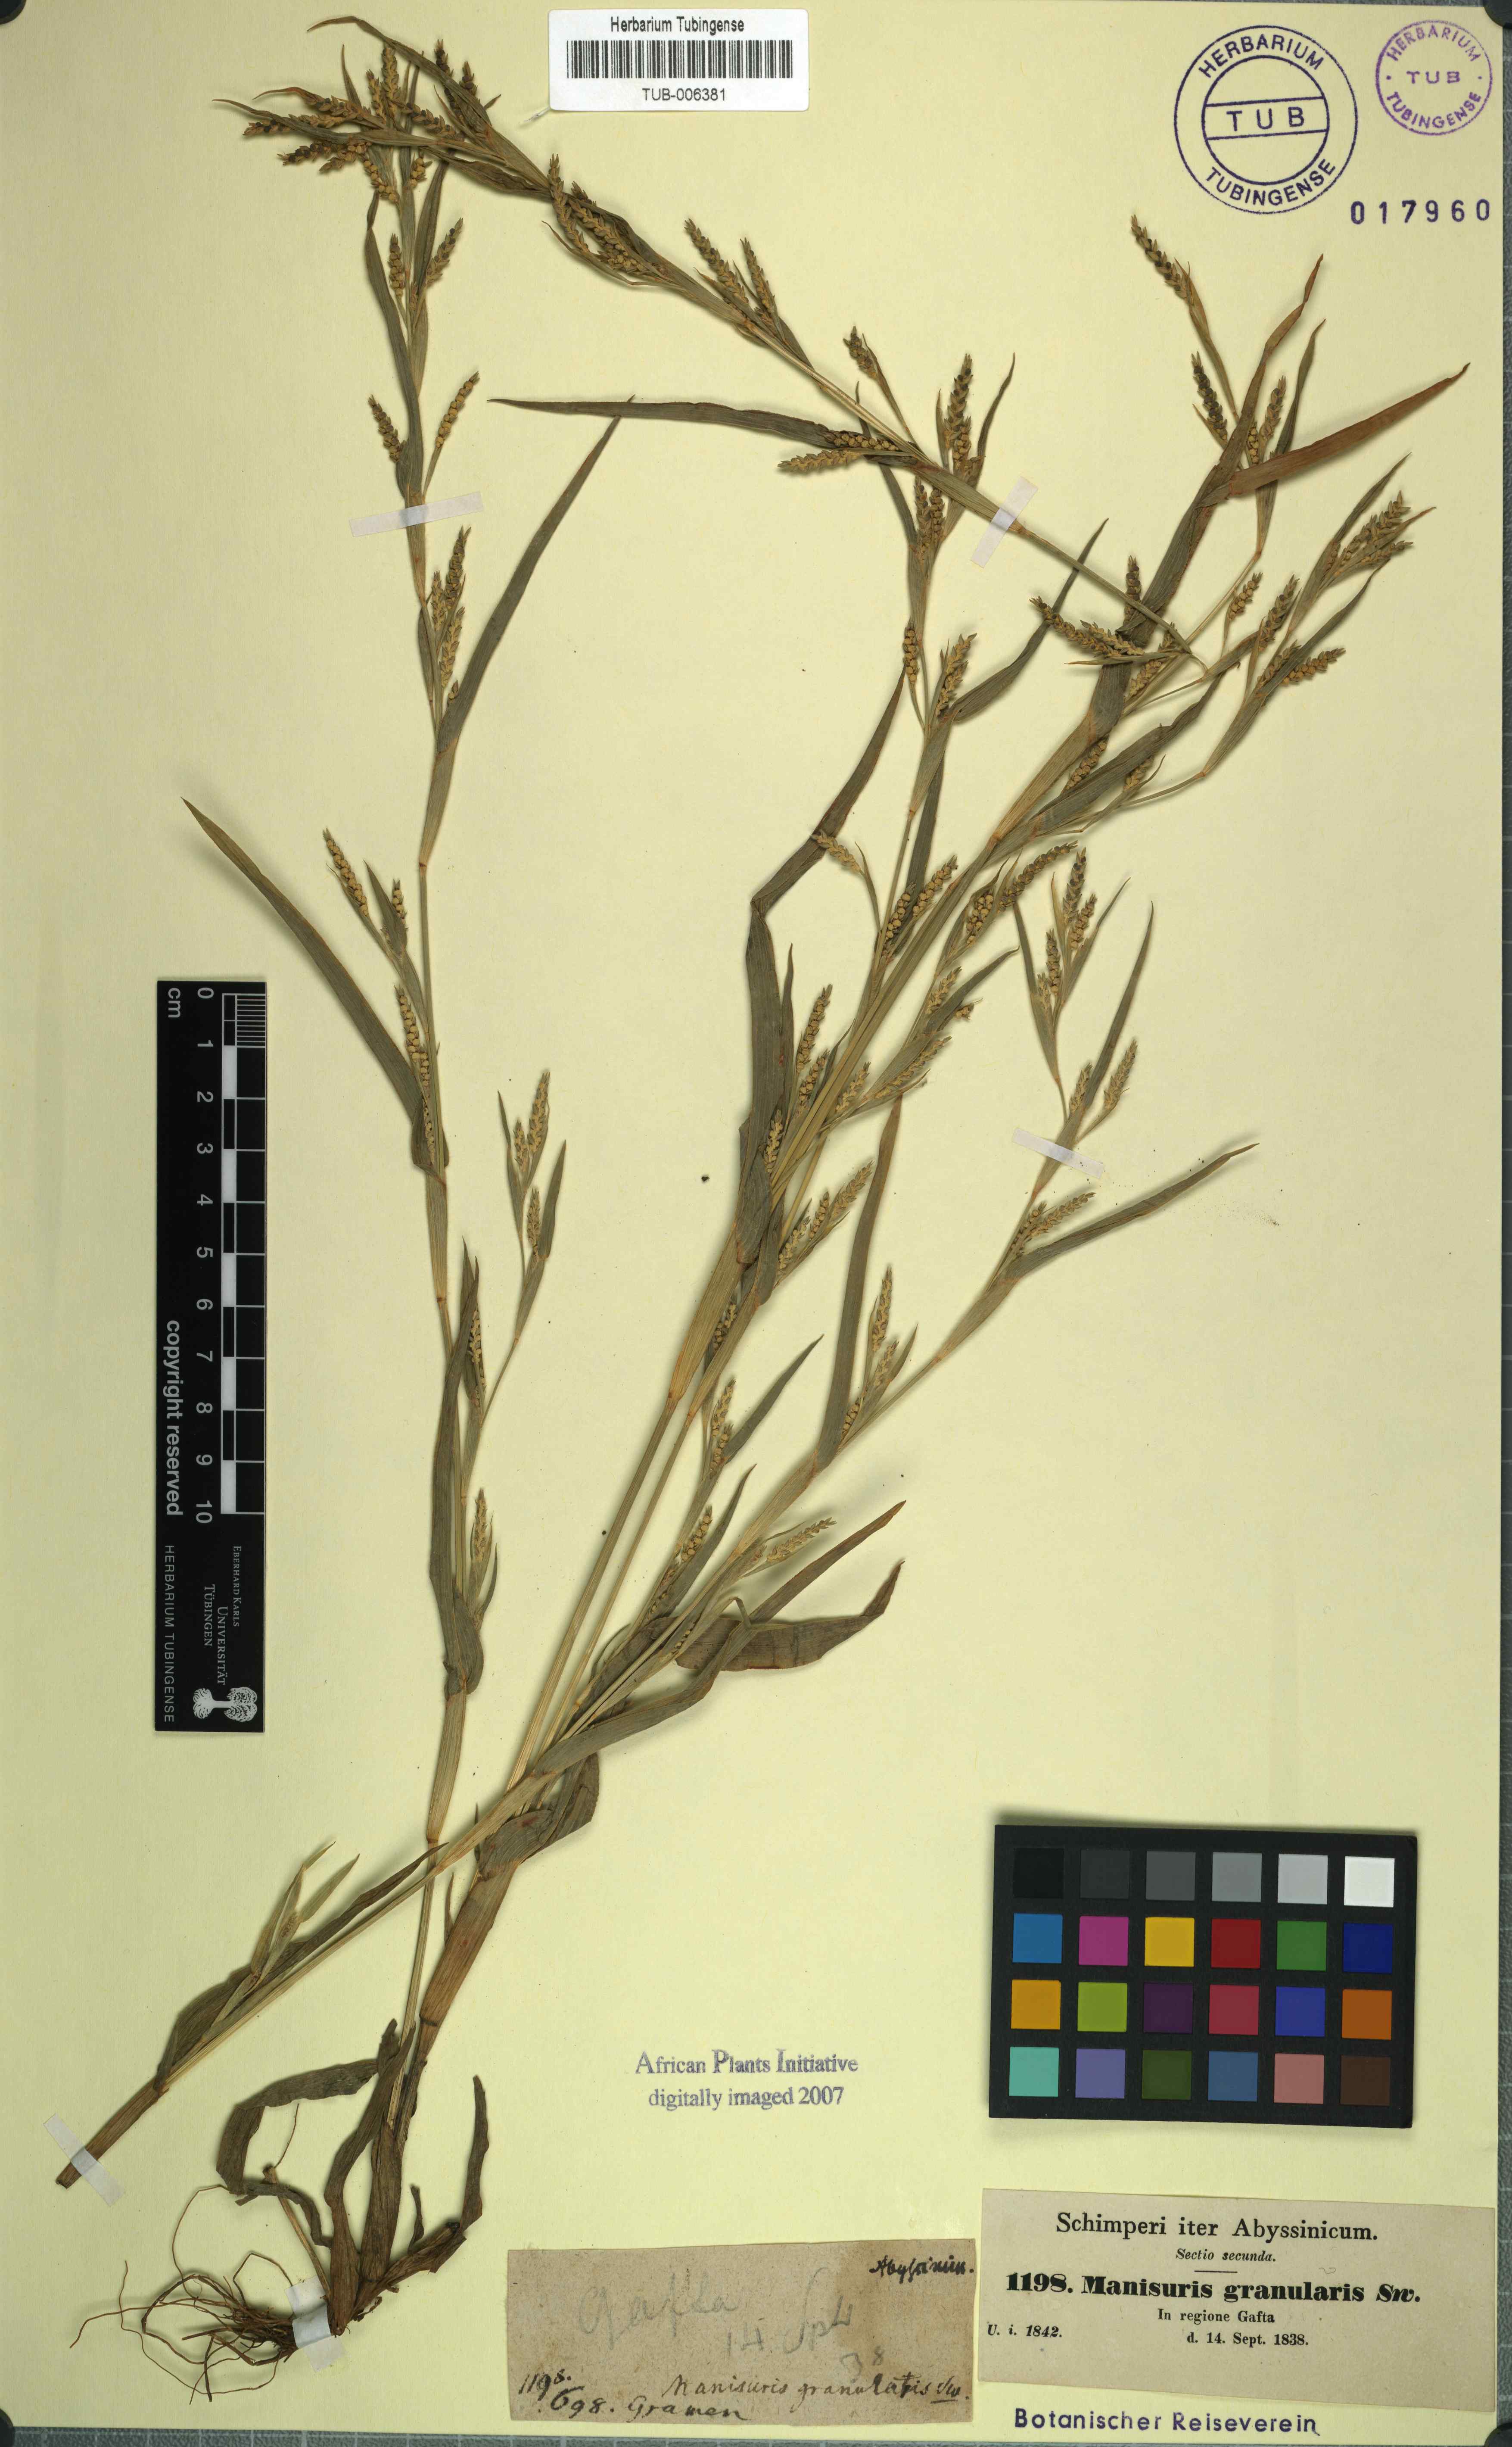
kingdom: Plantae
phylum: Tracheophyta
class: Liliopsida
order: Poales
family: Poaceae
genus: Hackelochloa
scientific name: Hackelochloa granularis
